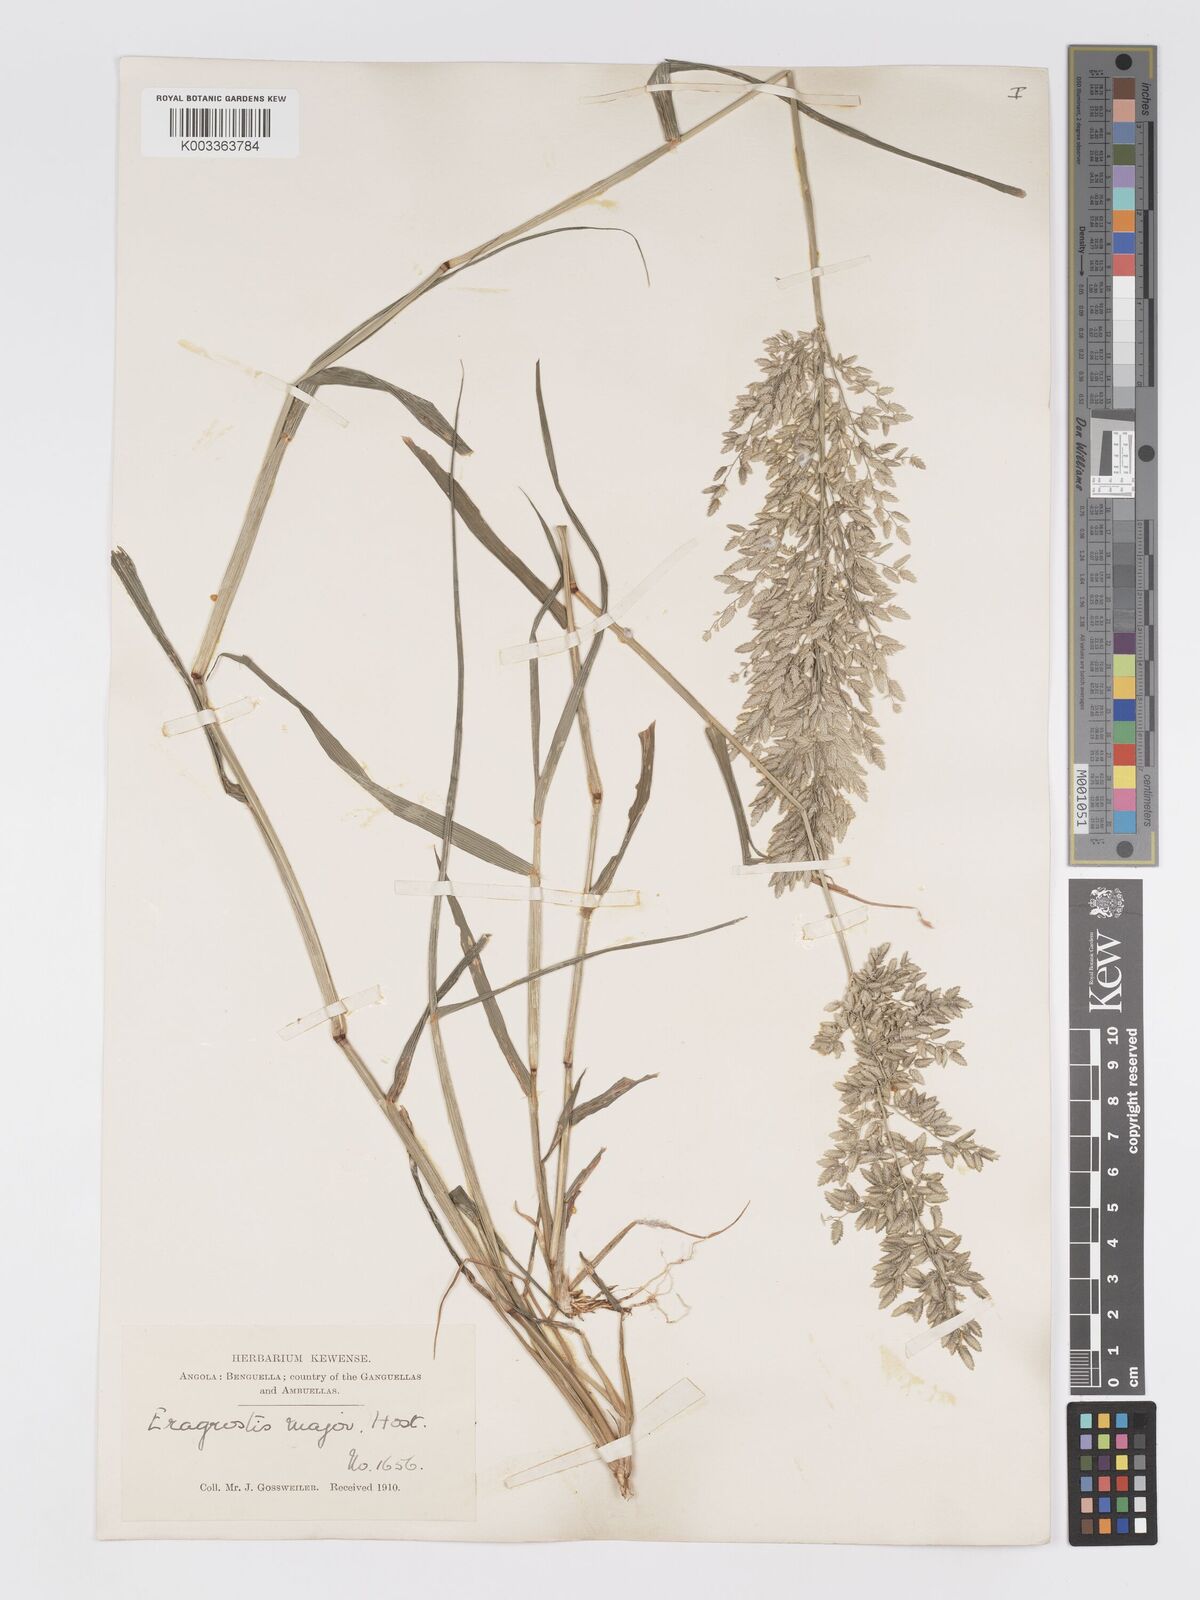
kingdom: Plantae
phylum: Tracheophyta
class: Liliopsida
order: Poales
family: Poaceae
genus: Eragrostis
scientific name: Eragrostis cilianensis
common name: Stinkgrass
